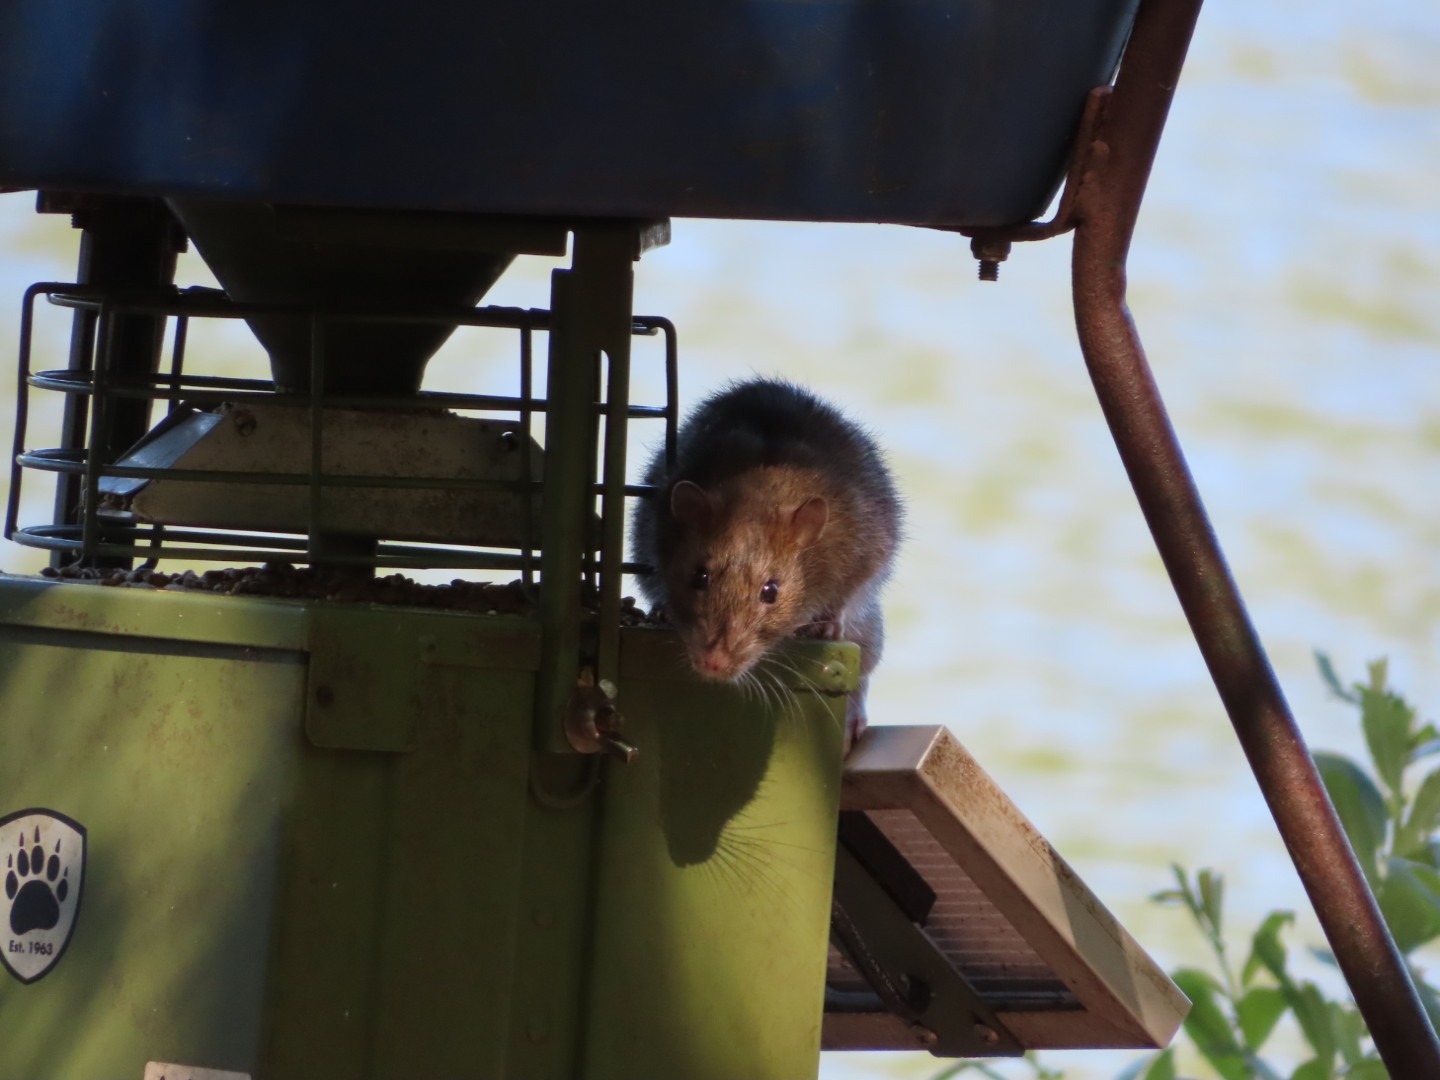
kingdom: Animalia
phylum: Chordata
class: Mammalia
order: Rodentia
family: Muridae
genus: Rattus
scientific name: Rattus norvegicus
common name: Brun rotte
